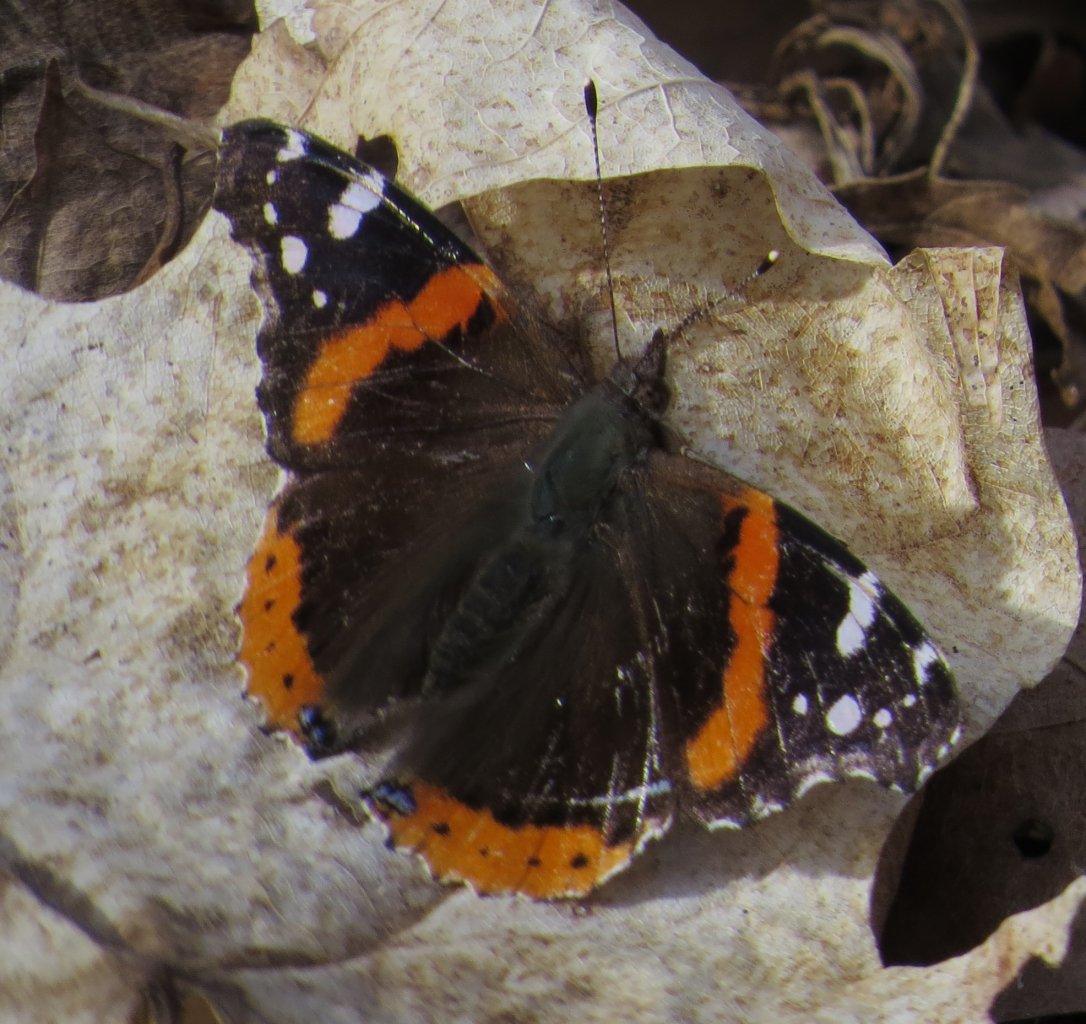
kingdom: Animalia
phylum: Arthropoda
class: Insecta
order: Lepidoptera
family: Nymphalidae
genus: Vanessa
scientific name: Vanessa atalanta
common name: Red Admiral
